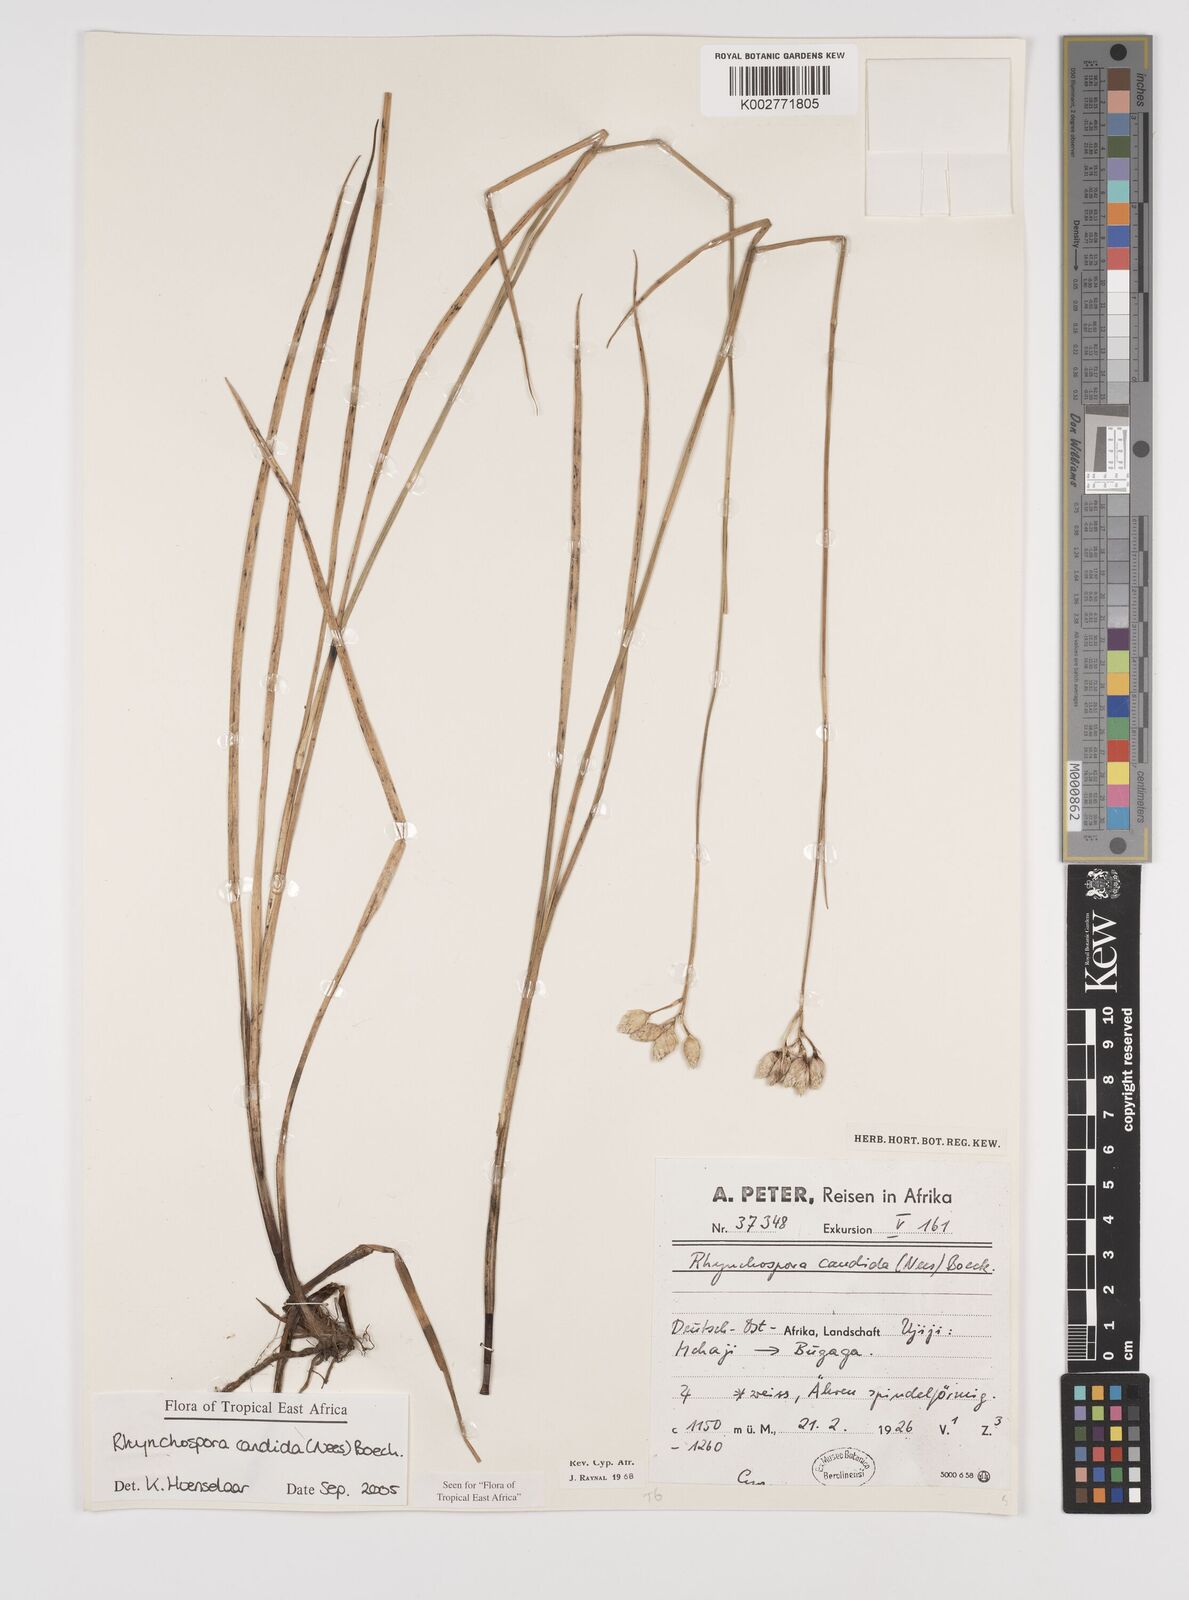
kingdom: Plantae
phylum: Tracheophyta
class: Liliopsida
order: Poales
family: Cyperaceae
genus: Rhynchospora
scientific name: Rhynchospora candida
